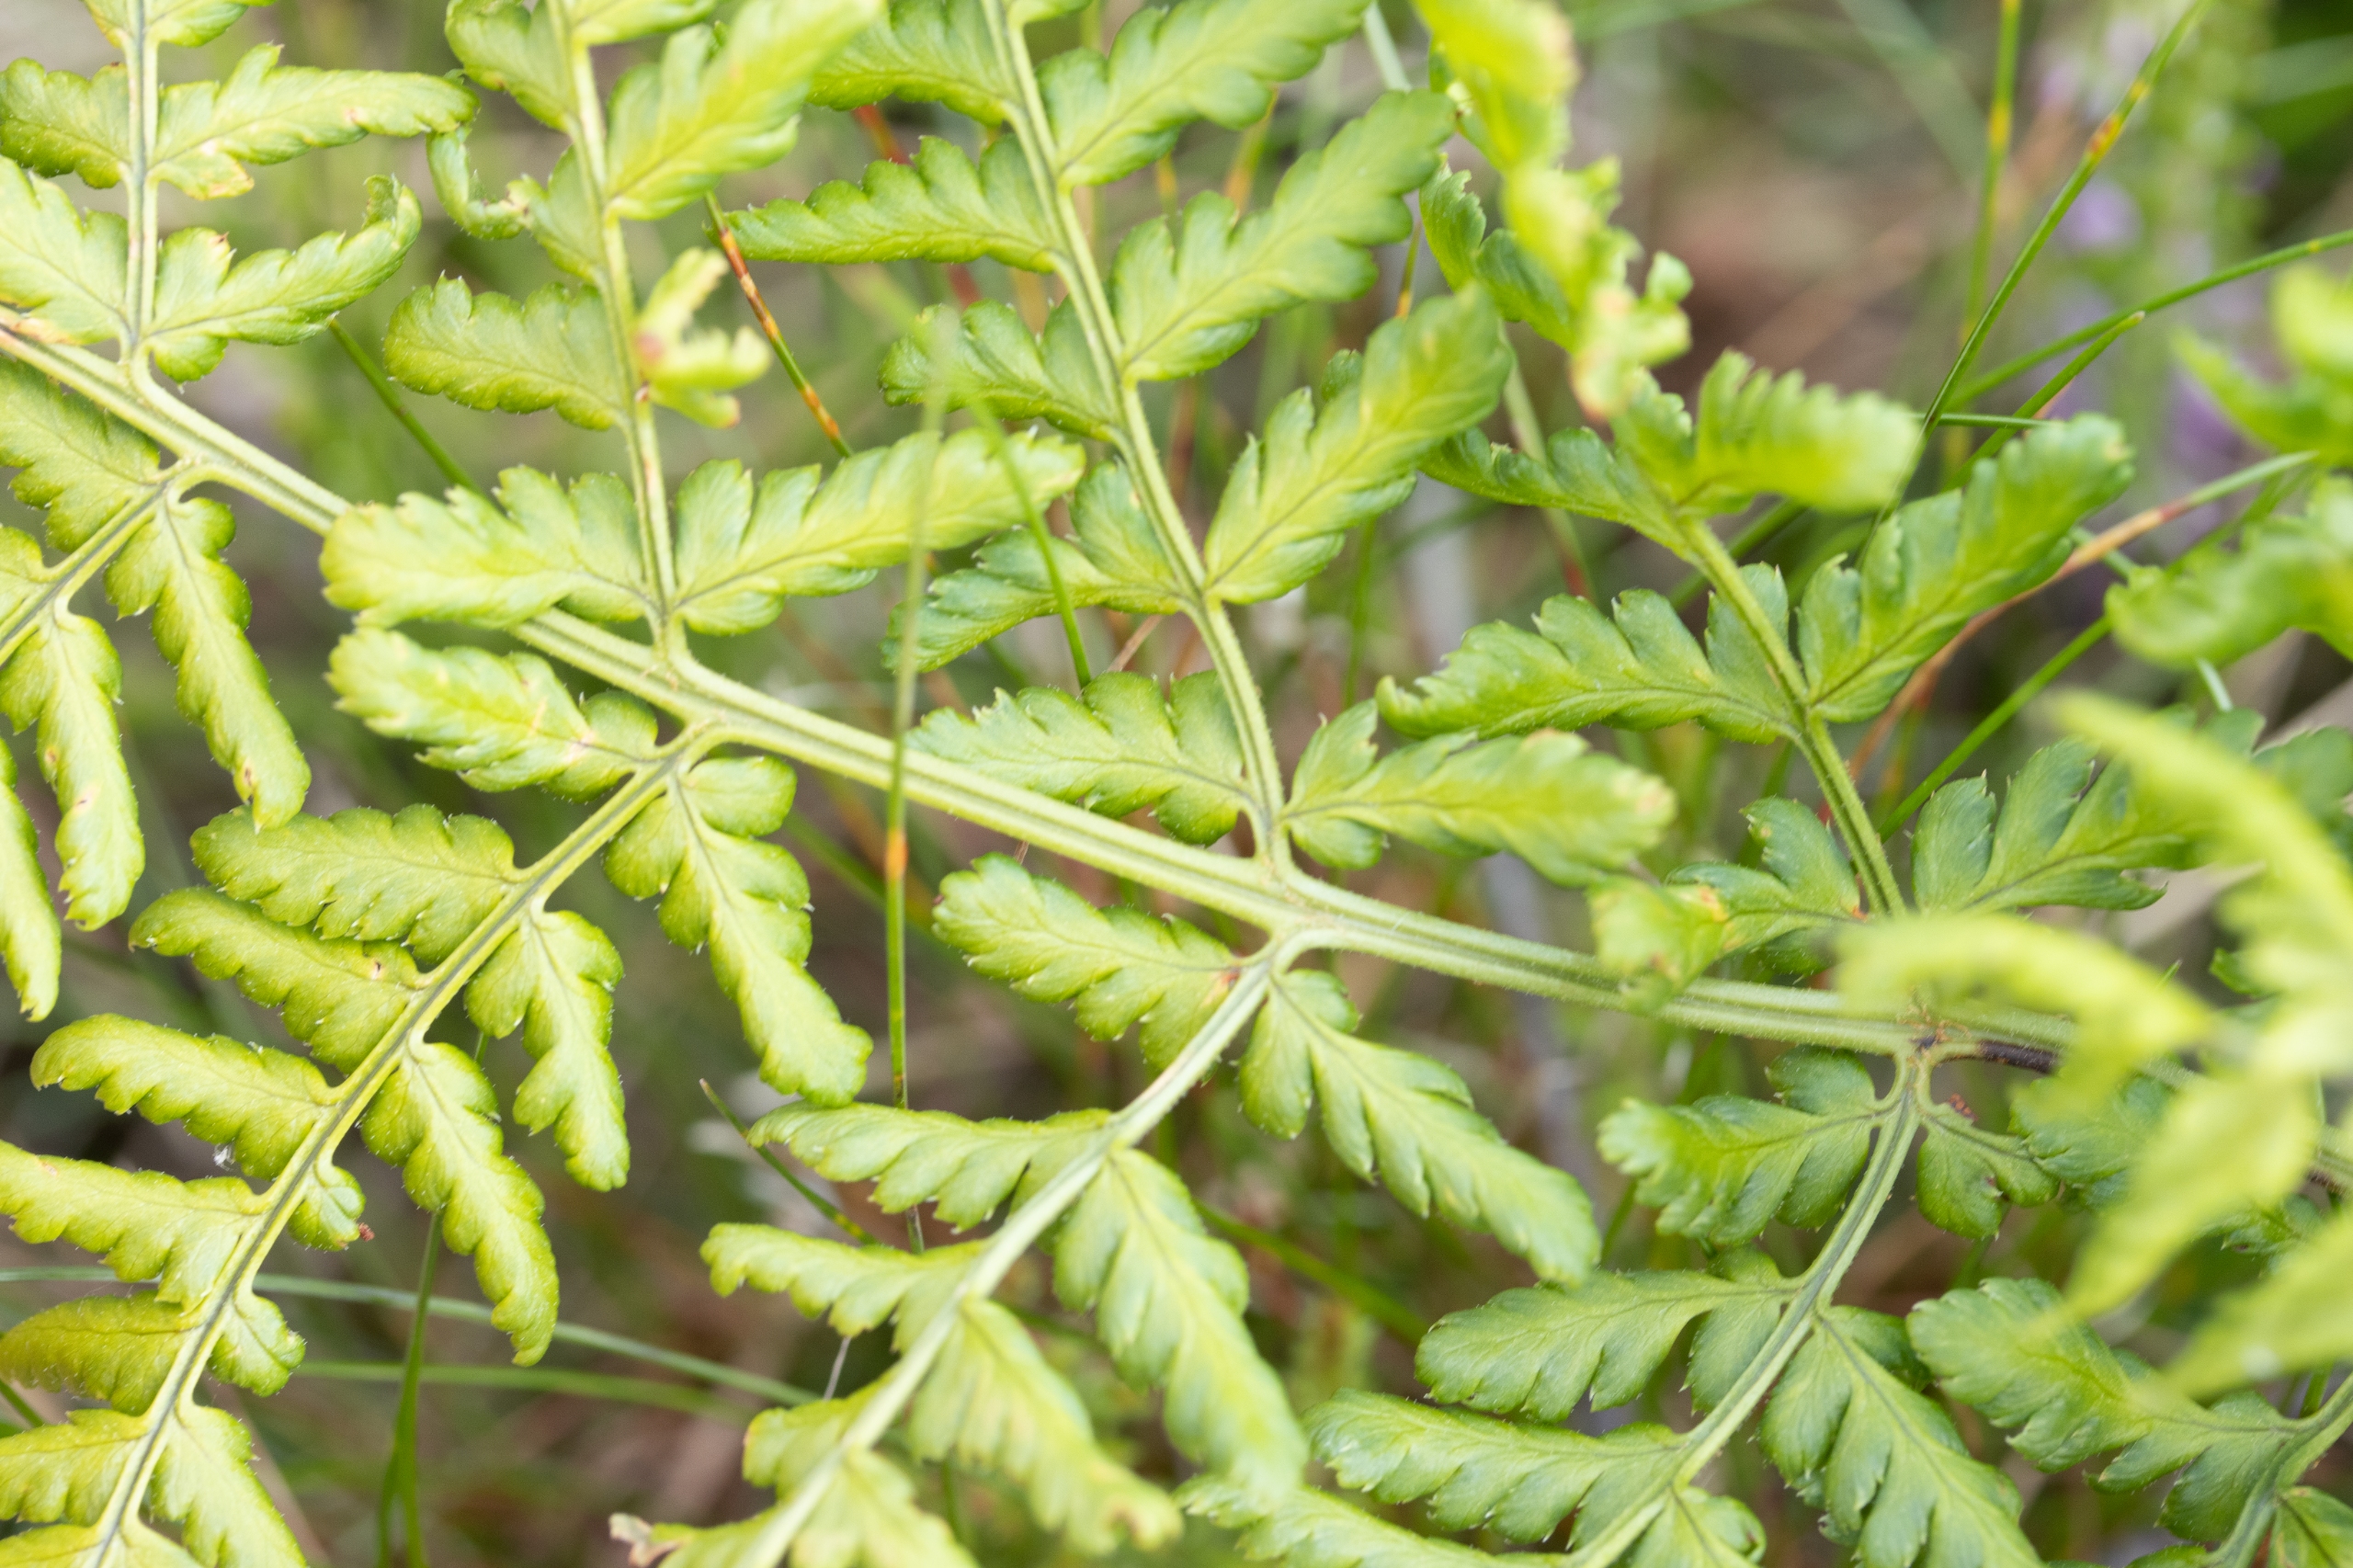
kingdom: Plantae
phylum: Tracheophyta
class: Polypodiopsida
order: Polypodiales
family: Dryopteridaceae
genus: Dryopteris
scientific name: Dryopteris carthusiana
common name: Smalbladet mangeløv
